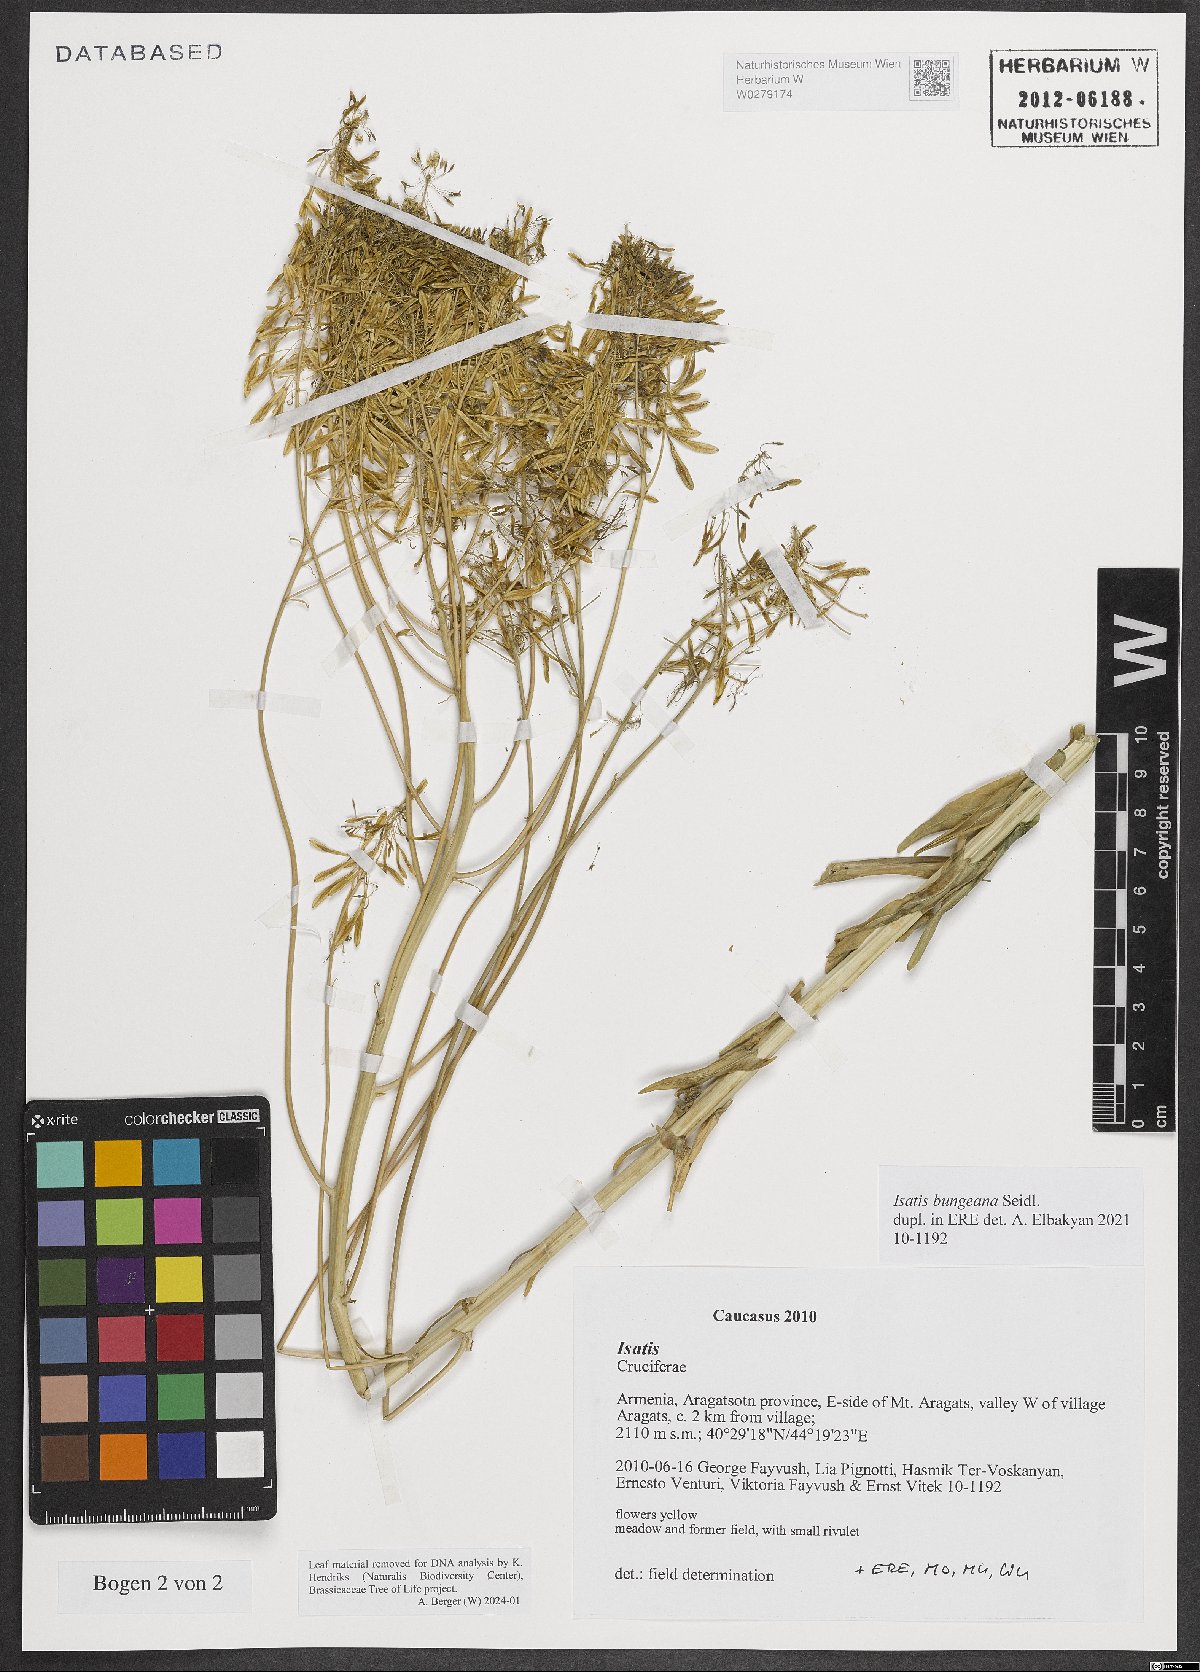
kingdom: Plantae
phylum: Tracheophyta
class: Magnoliopsida
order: Brassicales
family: Brassicaceae
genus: Isatis
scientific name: Isatis bungeana
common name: Bunge's woad
